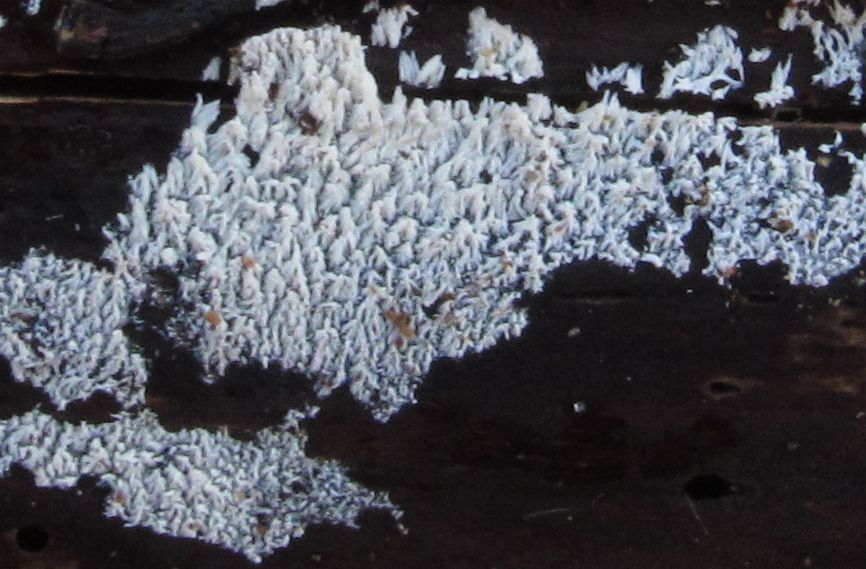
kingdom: Fungi
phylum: Basidiomycota
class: Agaricomycetes
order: Hymenochaetales
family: Schizoporaceae
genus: Xylodon
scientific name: Xylodon brevisetus
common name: tætvortet tandsvamp
